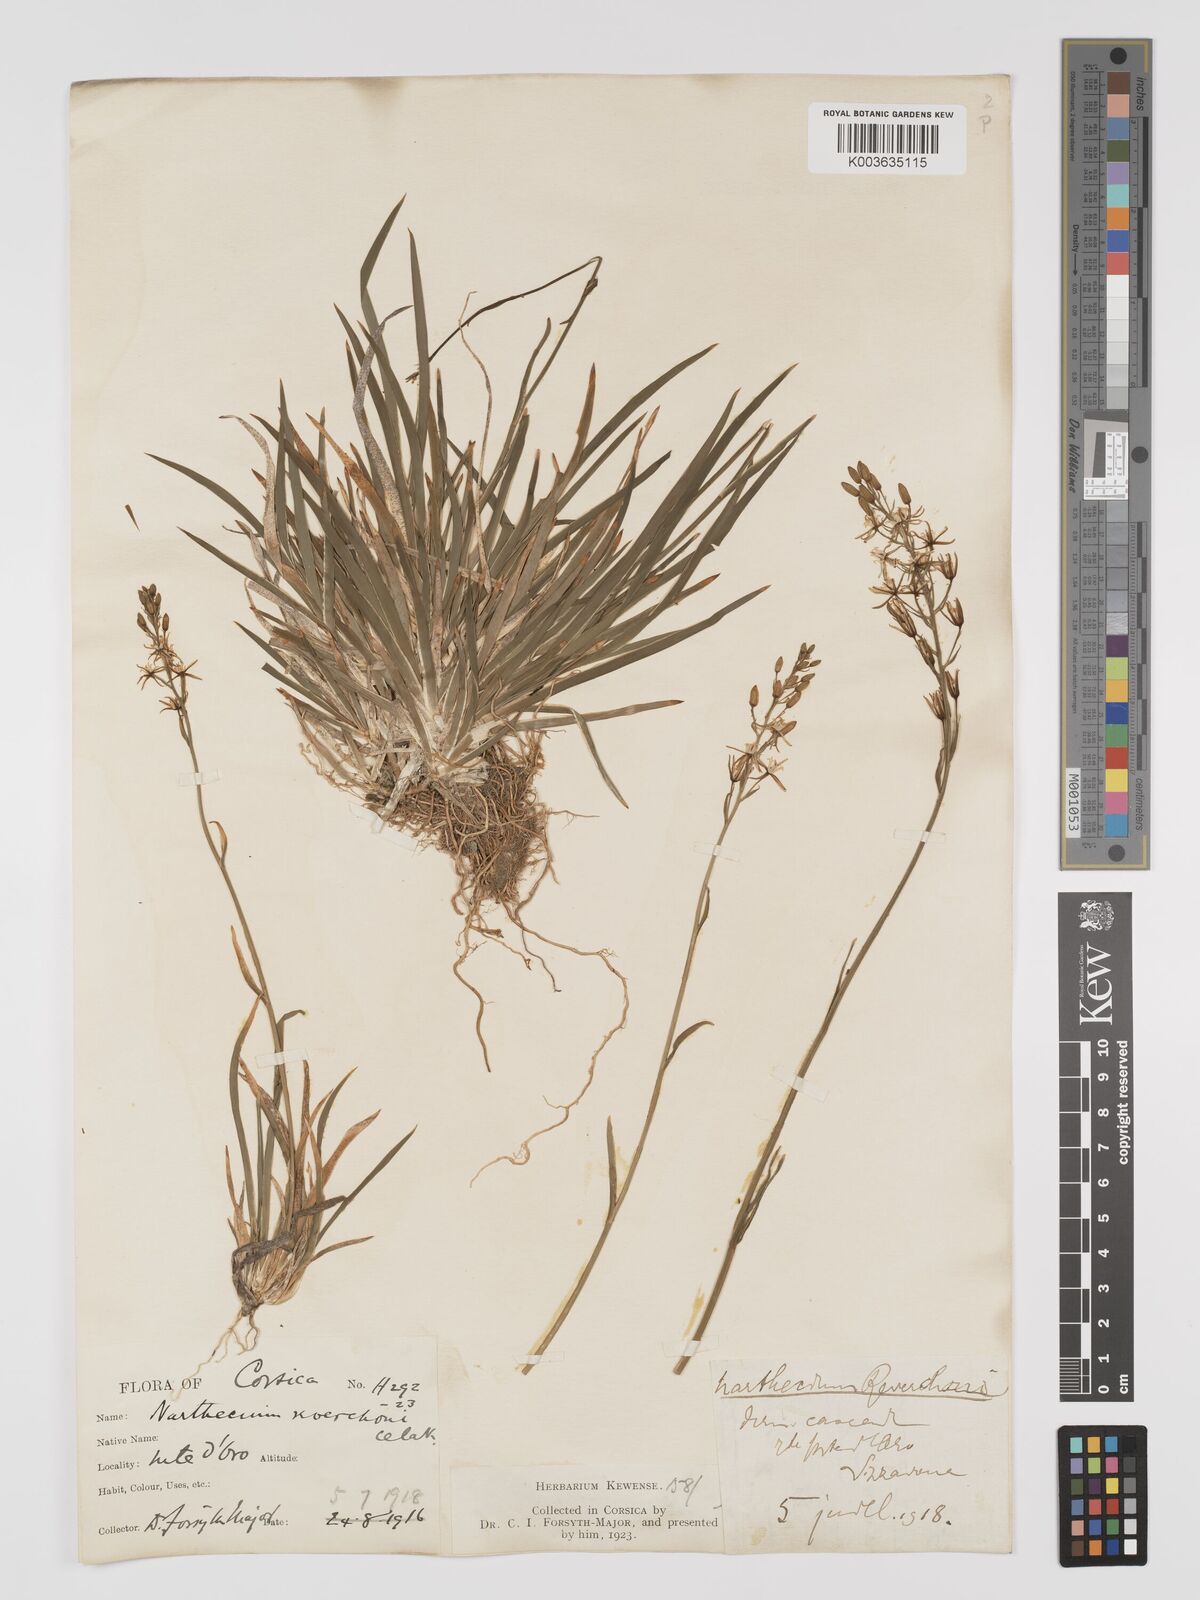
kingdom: Plantae
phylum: Tracheophyta
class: Liliopsida
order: Dioscoreales
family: Nartheciaceae
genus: Narthecium
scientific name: Narthecium reverchonii
